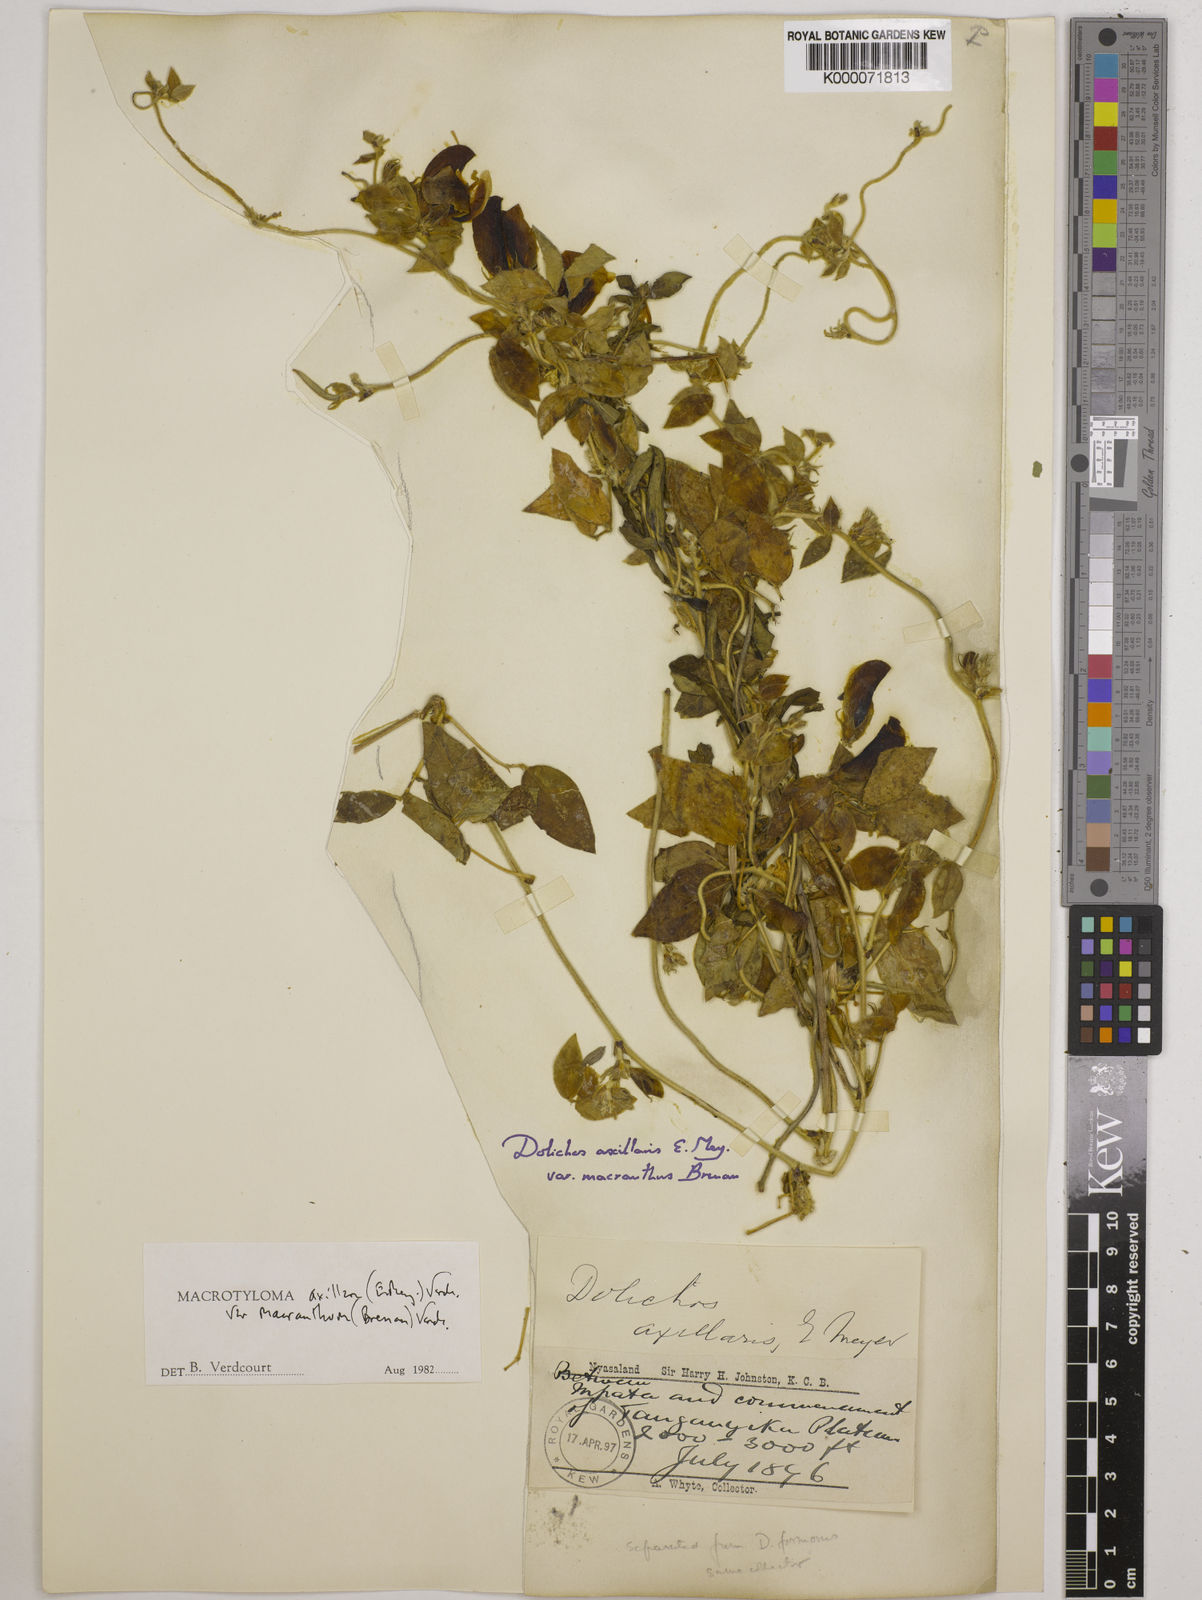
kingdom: Plantae
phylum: Tracheophyta
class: Magnoliopsida
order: Fabales
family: Fabaceae
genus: Macrotyloma
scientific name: Macrotyloma axillare
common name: Perennial horsegram
